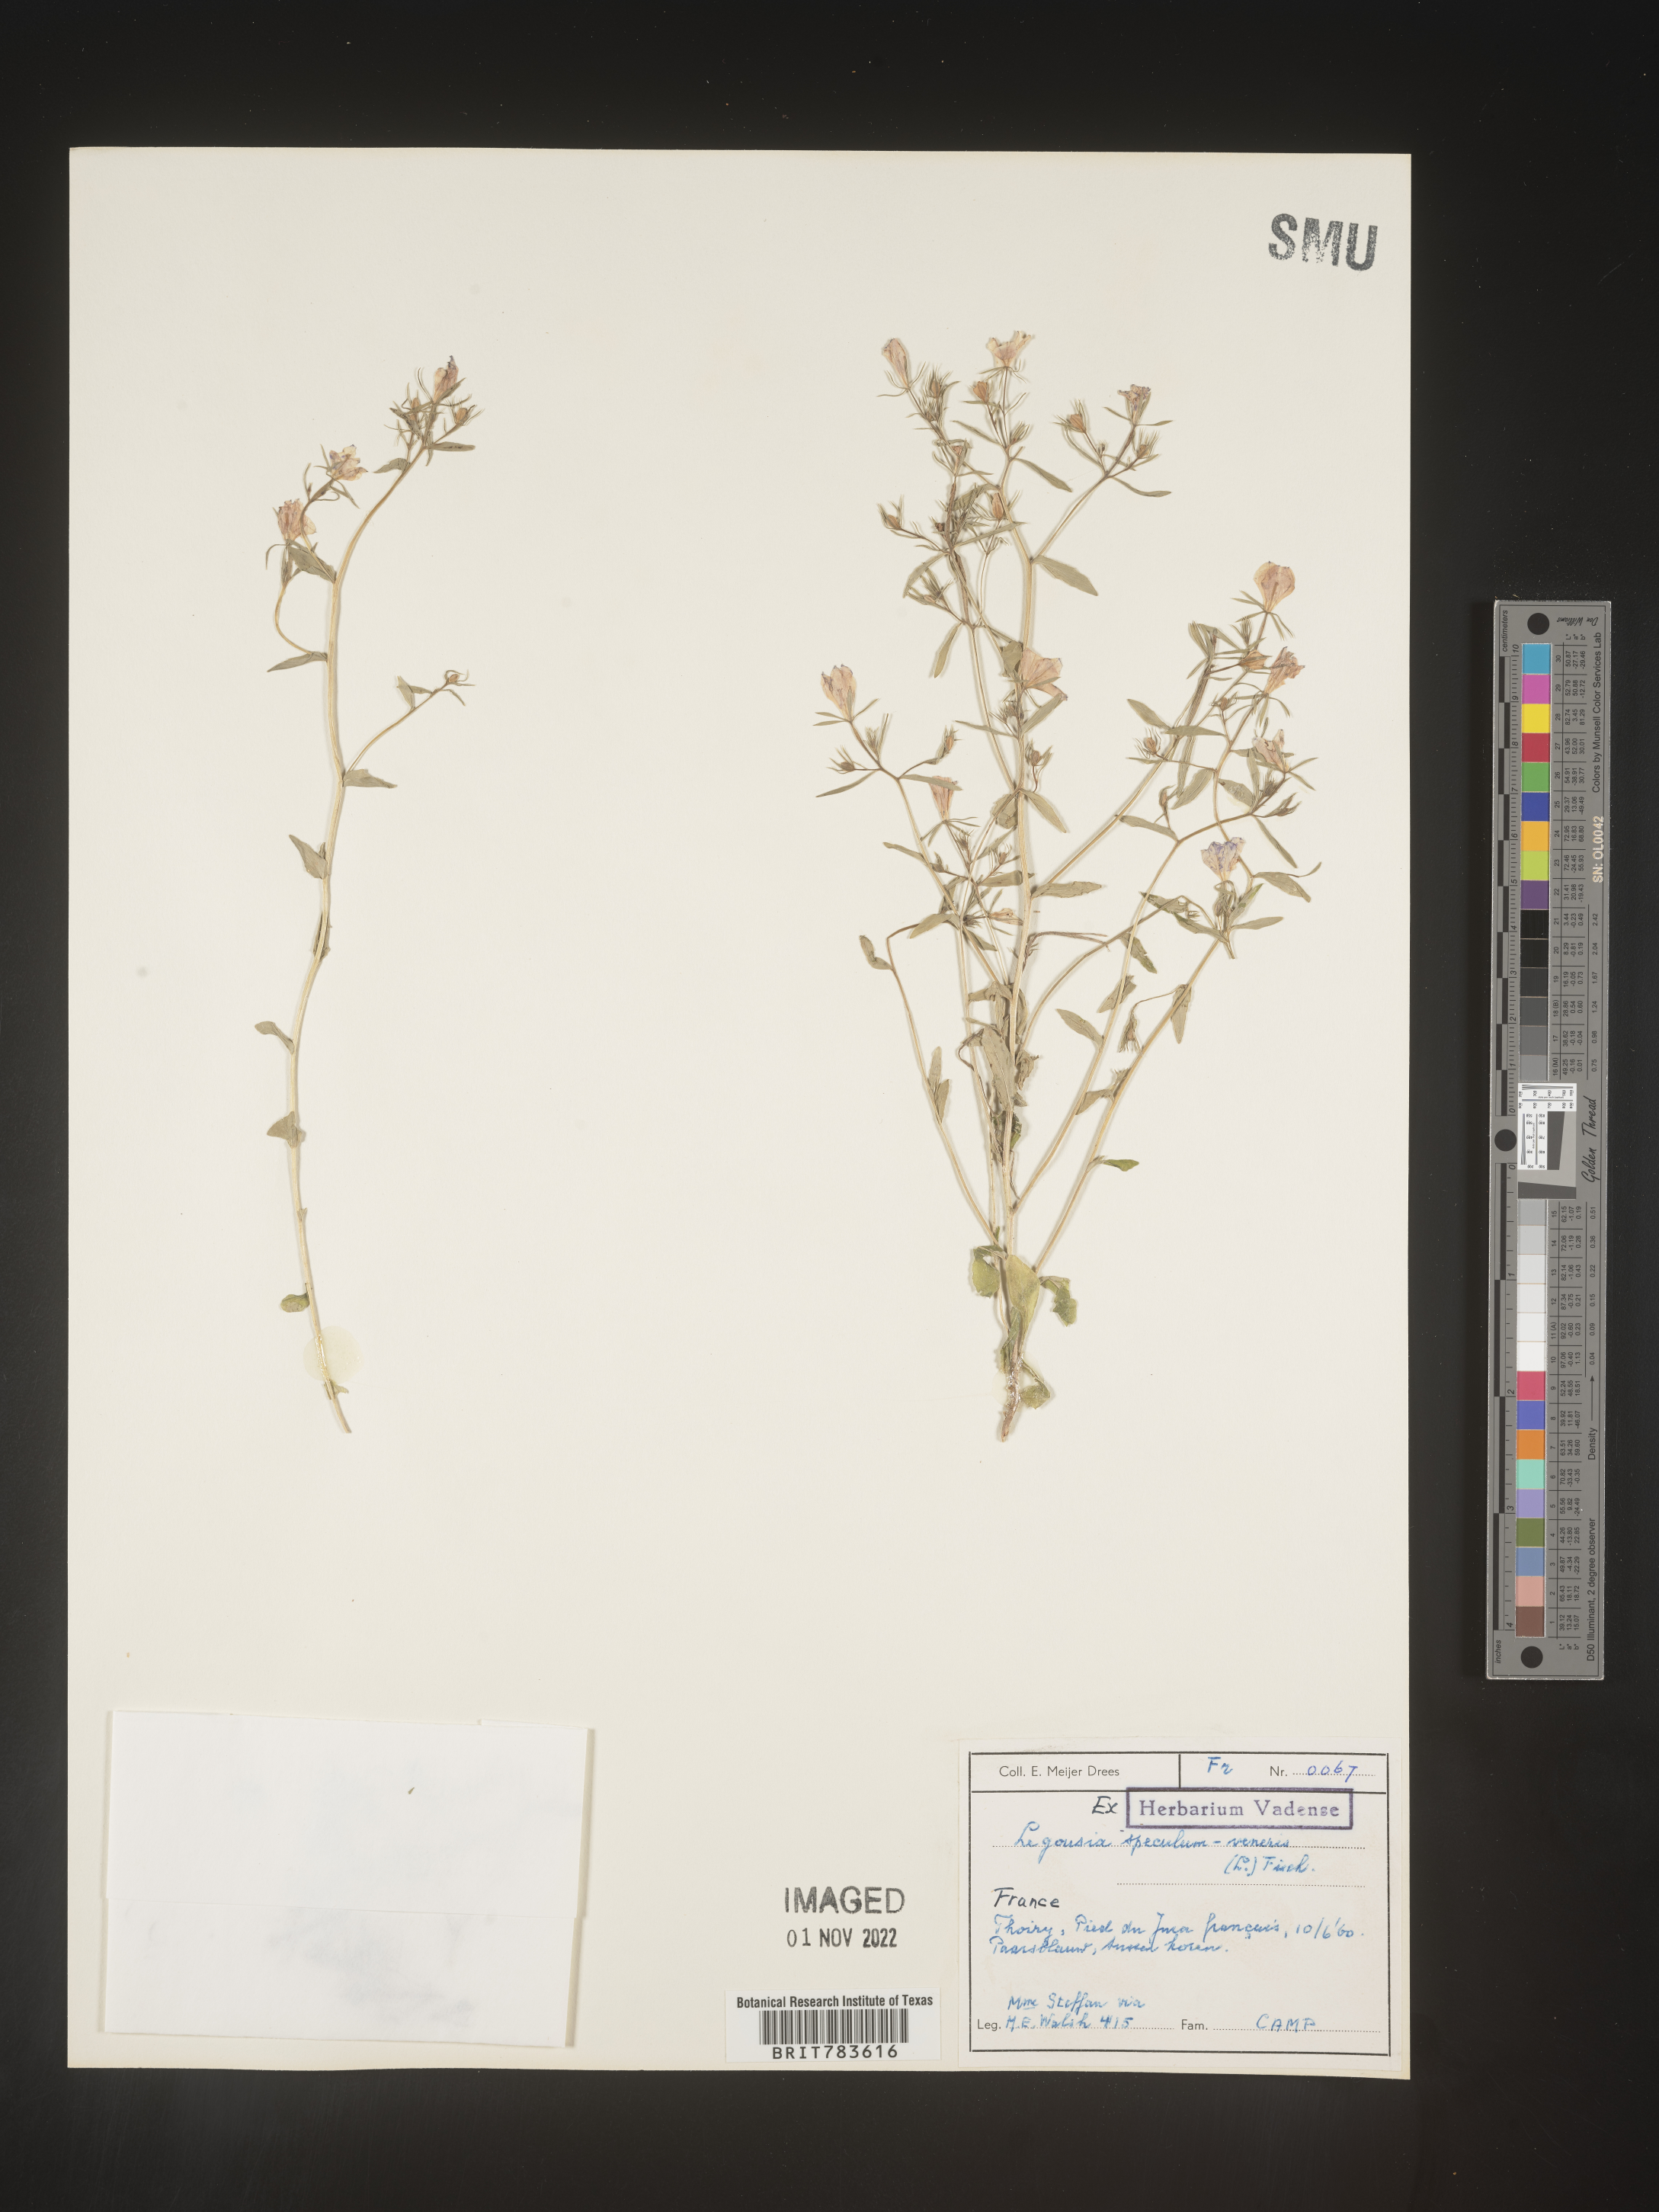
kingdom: Plantae
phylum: Tracheophyta
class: Magnoliopsida
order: Asterales
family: Campanulaceae
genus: Specularia
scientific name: Specularia
